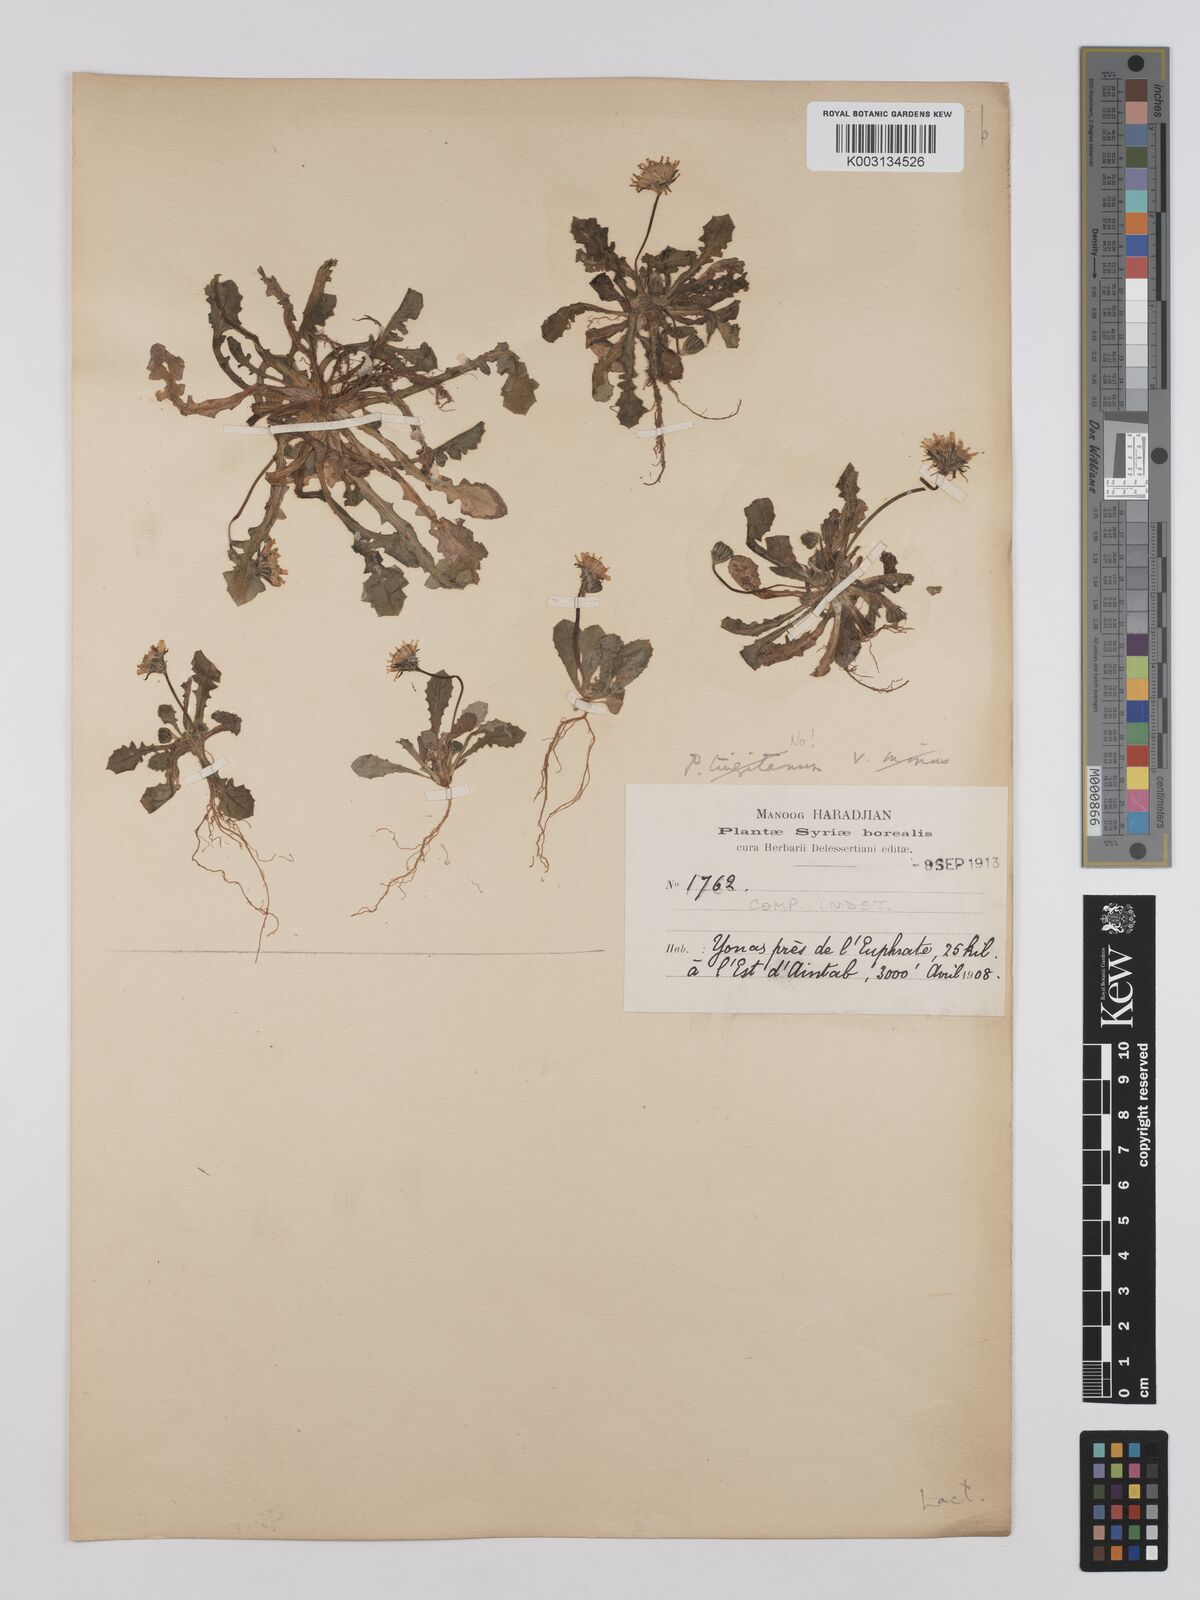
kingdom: Plantae
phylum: Tracheophyta
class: Magnoliopsida
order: Asterales
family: Asteraceae
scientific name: Asteraceae
